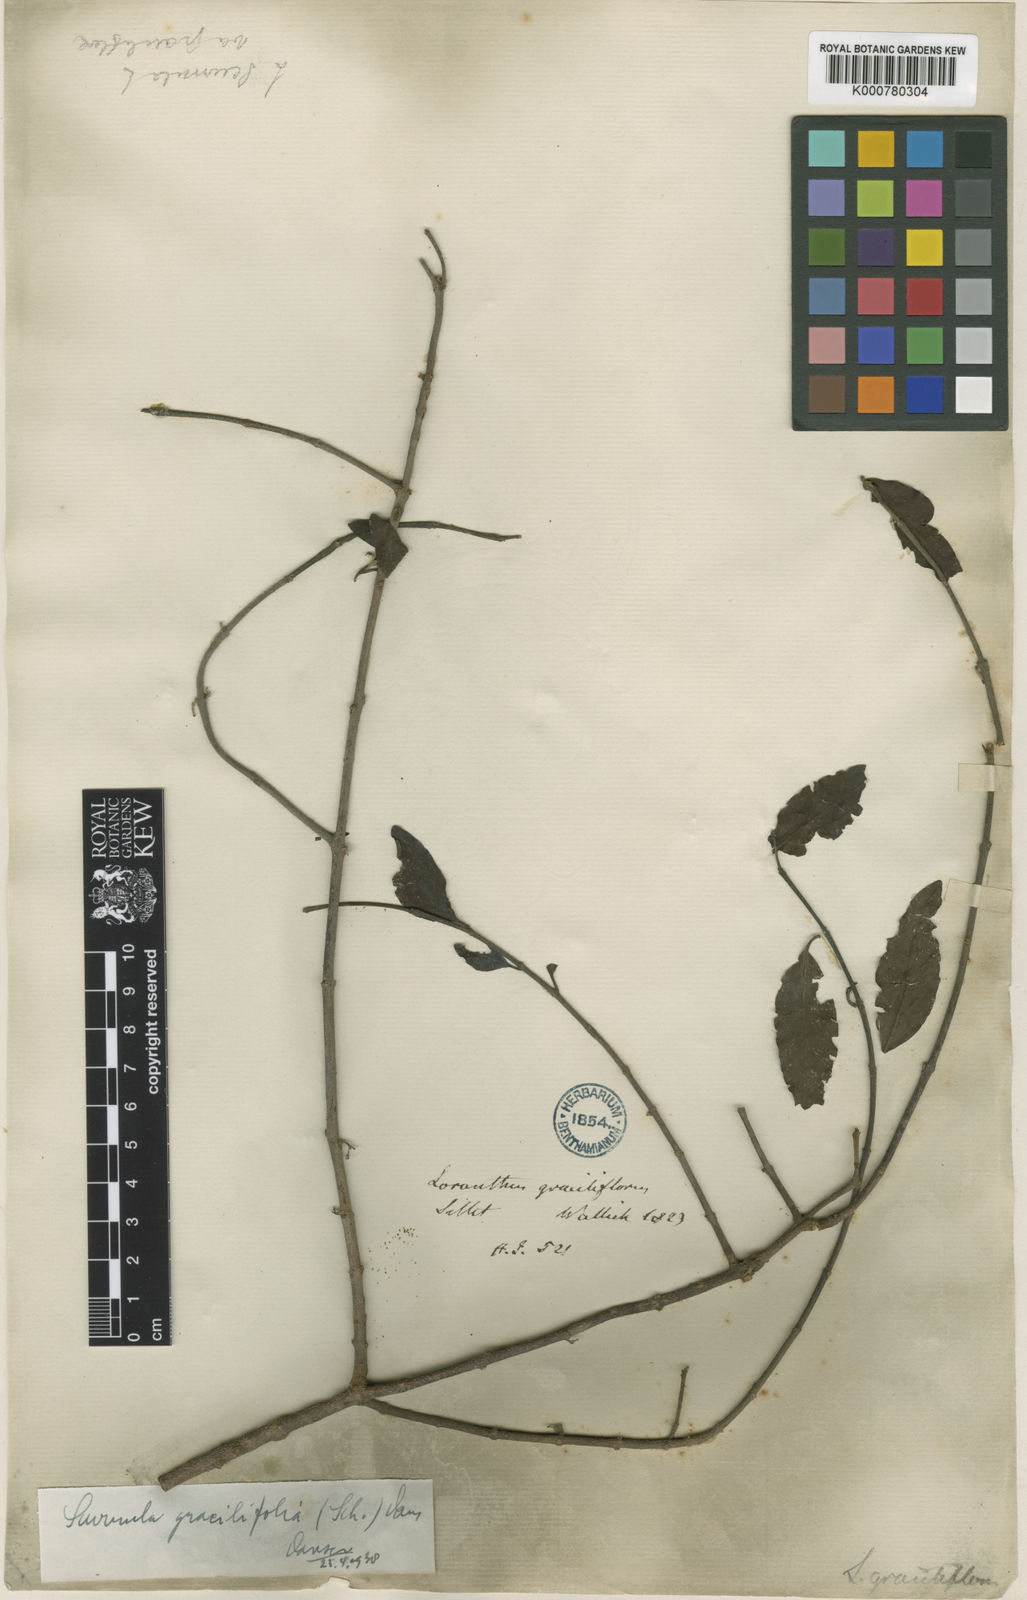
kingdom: Plantae
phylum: Tracheophyta
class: Magnoliopsida
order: Santalales
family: Loranthaceae
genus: Scurrula
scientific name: Scurrula gracilifolia
